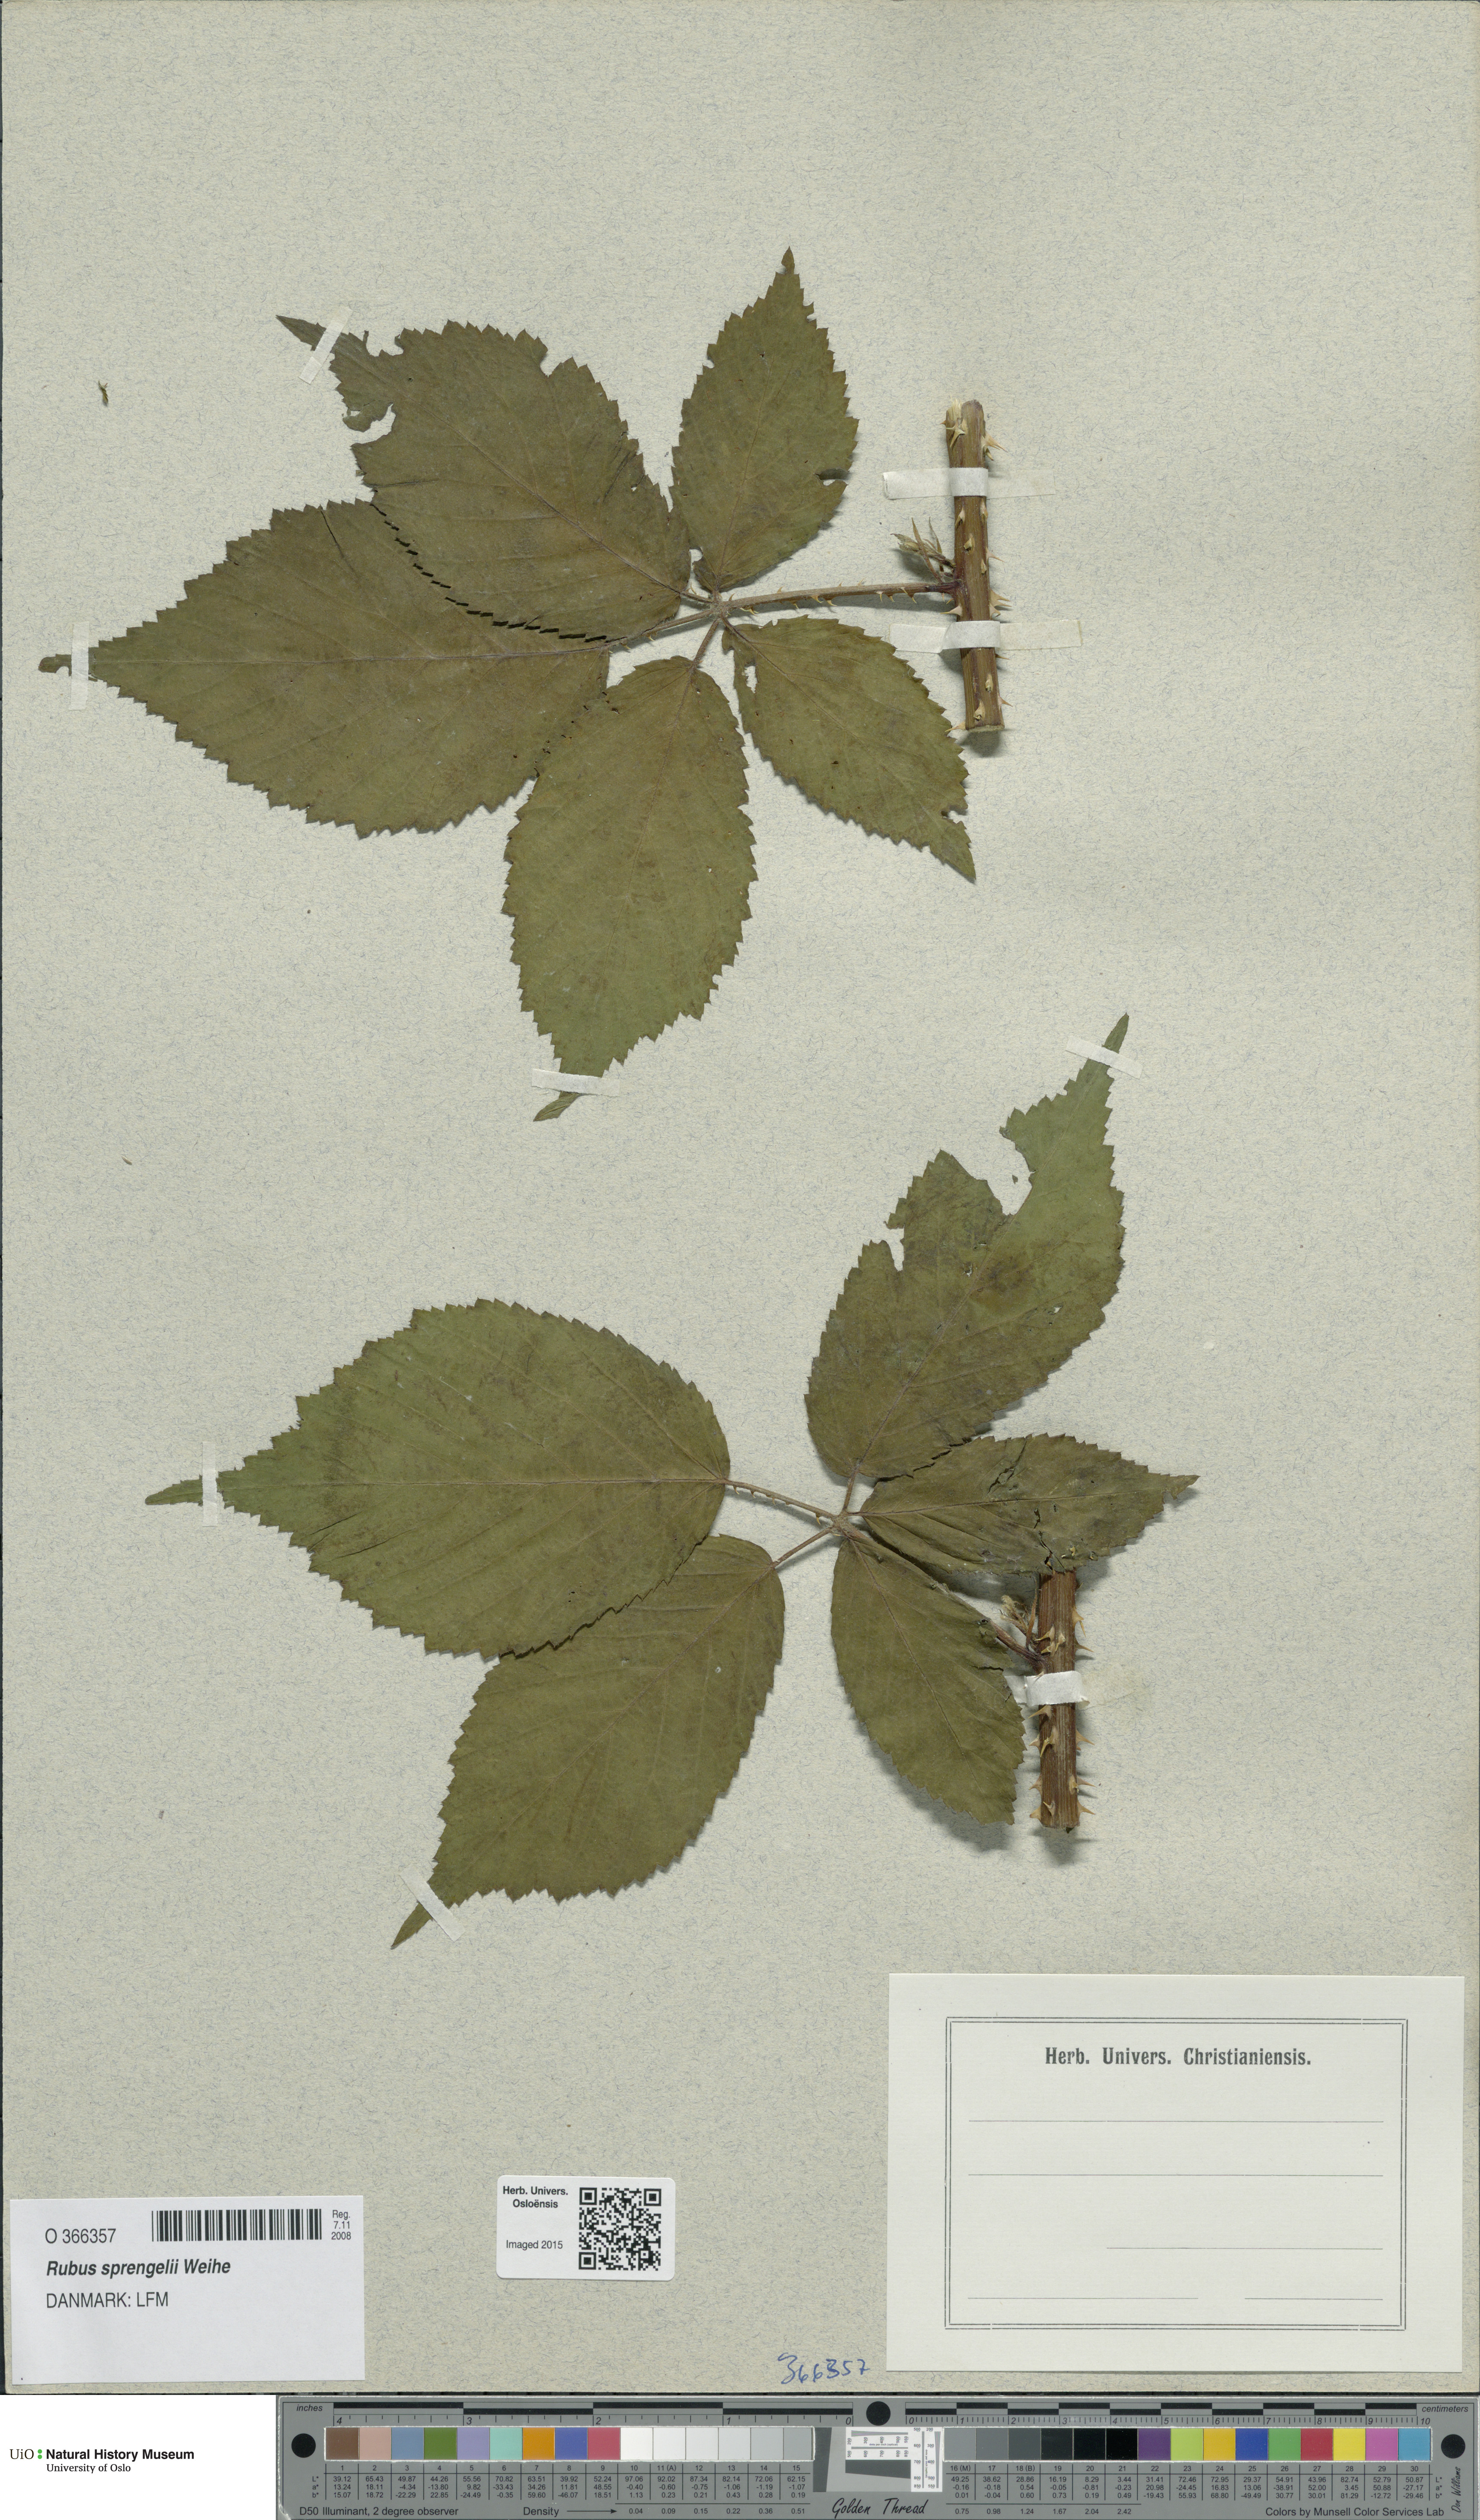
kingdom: Plantae
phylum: Tracheophyta
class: Magnoliopsida
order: Rosales
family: Rosaceae
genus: Rubus
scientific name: Rubus sprengelii
